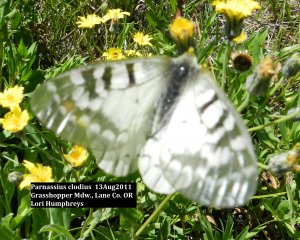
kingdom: Animalia
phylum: Arthropoda
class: Insecta
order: Lepidoptera
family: Papilionidae
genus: Parnassius
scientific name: Parnassius clodius
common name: Clodius Parnassian
